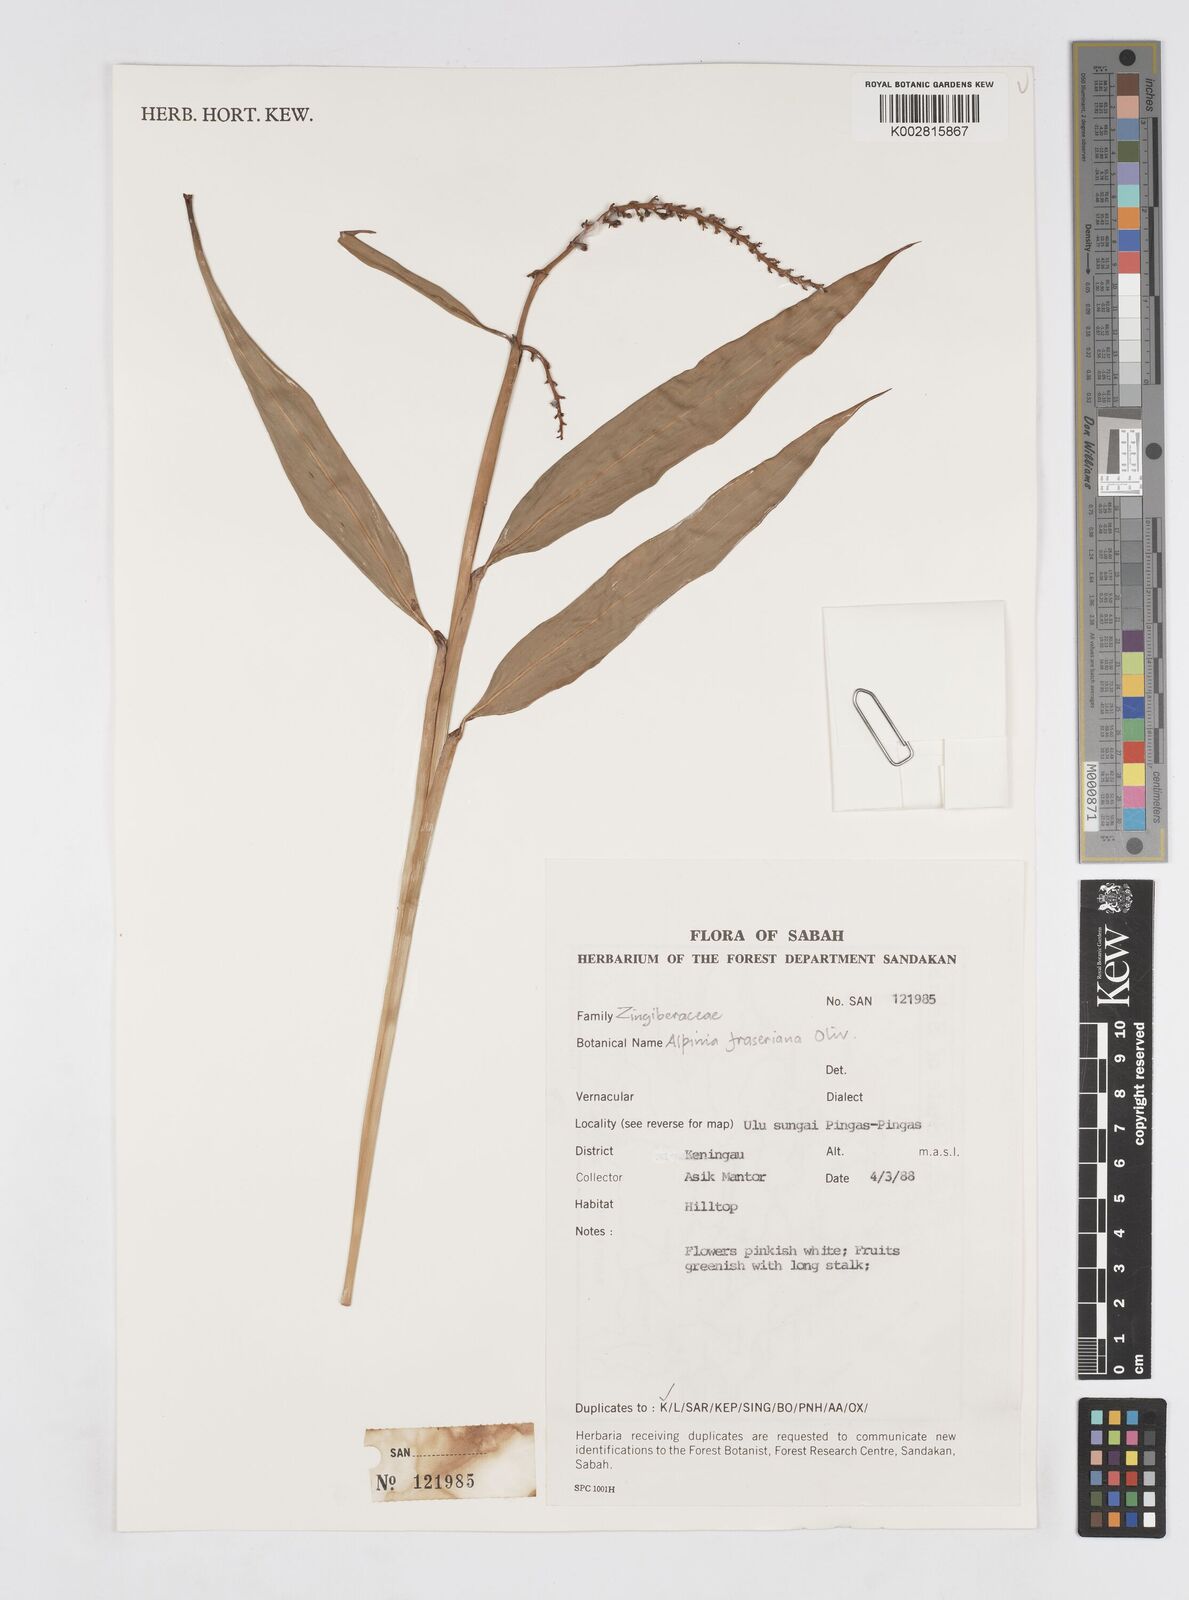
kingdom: Plantae
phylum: Tracheophyta
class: Liliopsida
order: Zingiberales
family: Zingiberaceae
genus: Alpinia
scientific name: Alpinia aquatica
